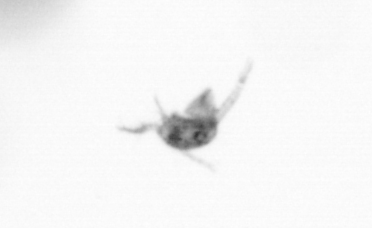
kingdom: Animalia
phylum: Arthropoda
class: Copepoda
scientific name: Copepoda
